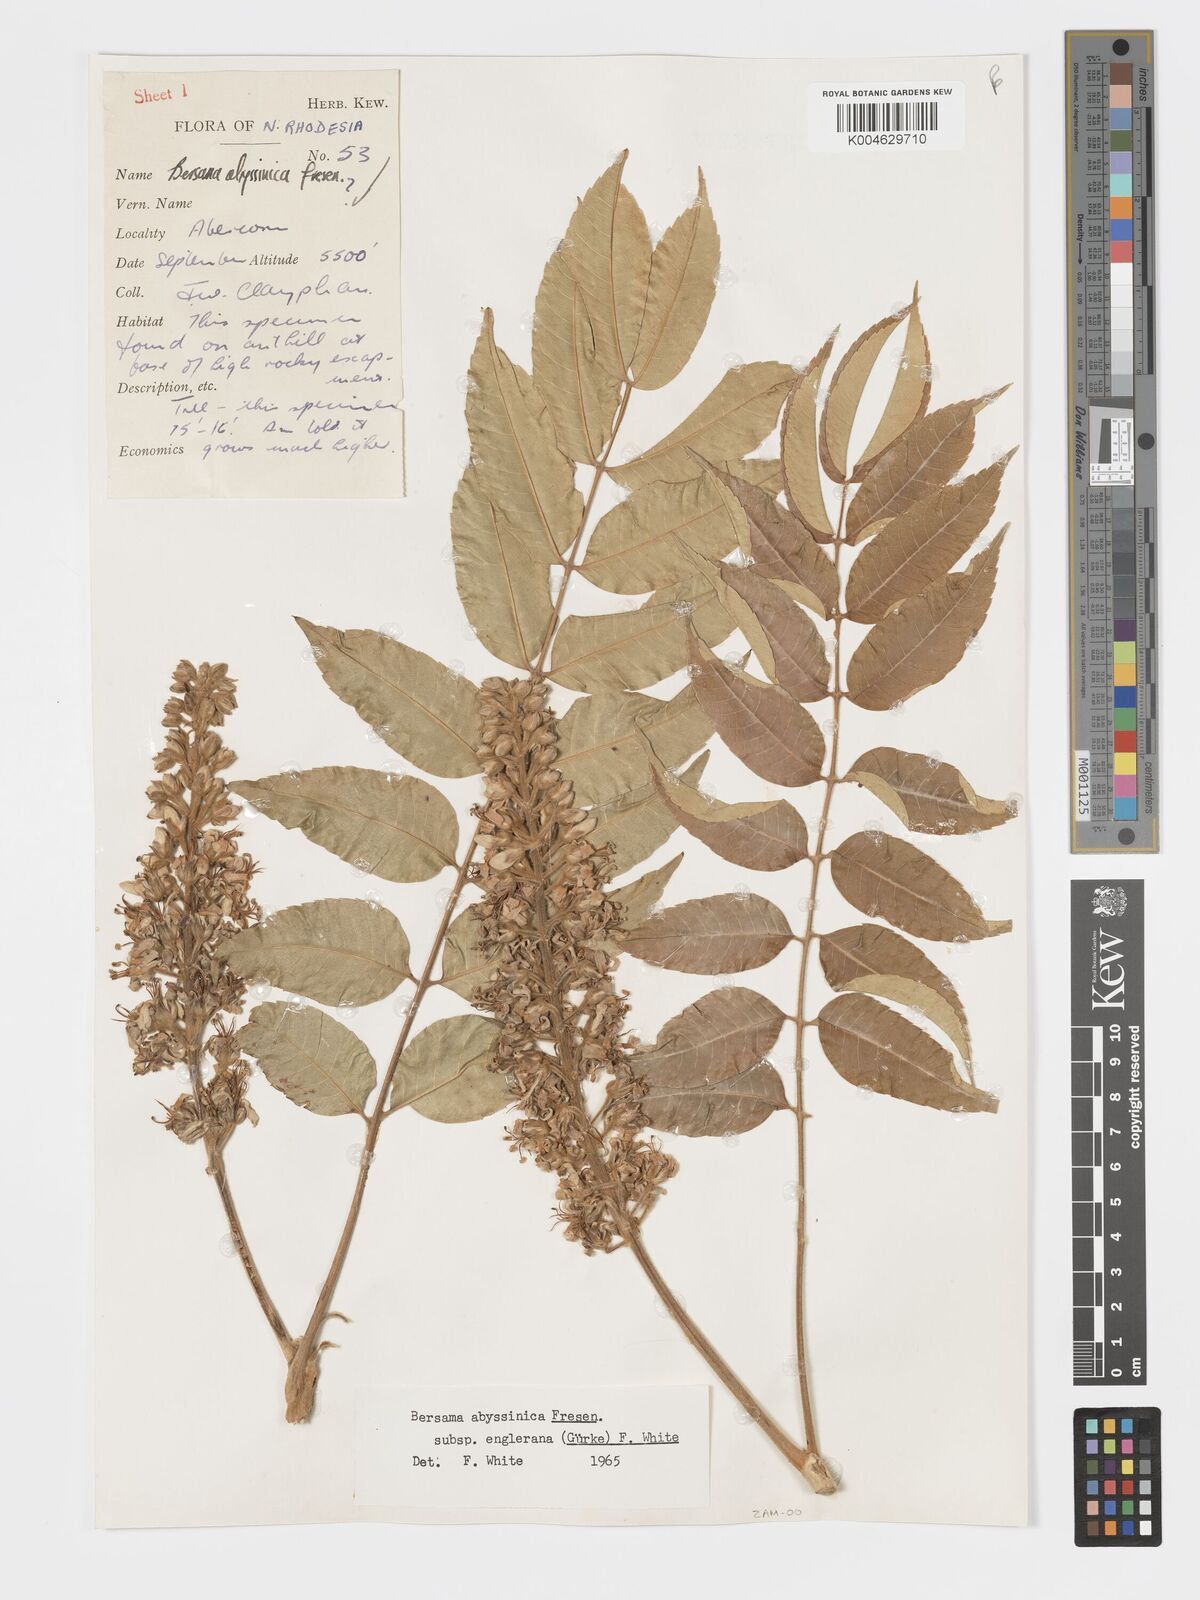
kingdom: Plantae
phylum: Tracheophyta
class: Magnoliopsida
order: Geraniales
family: Melianthaceae
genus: Bersama
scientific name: Bersama abyssinica
